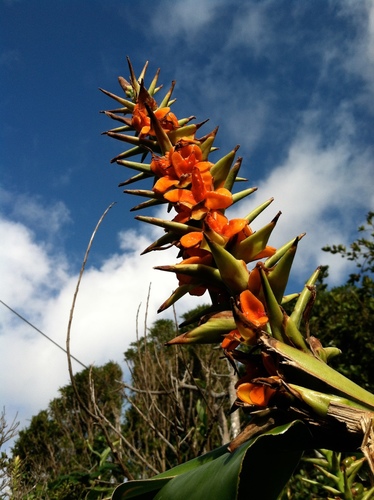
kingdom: Plantae
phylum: Tracheophyta
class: Liliopsida
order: Zingiberales
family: Zingiberaceae
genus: Hedychium
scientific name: Hedychium gardnerianum
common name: Himalayan ginger
